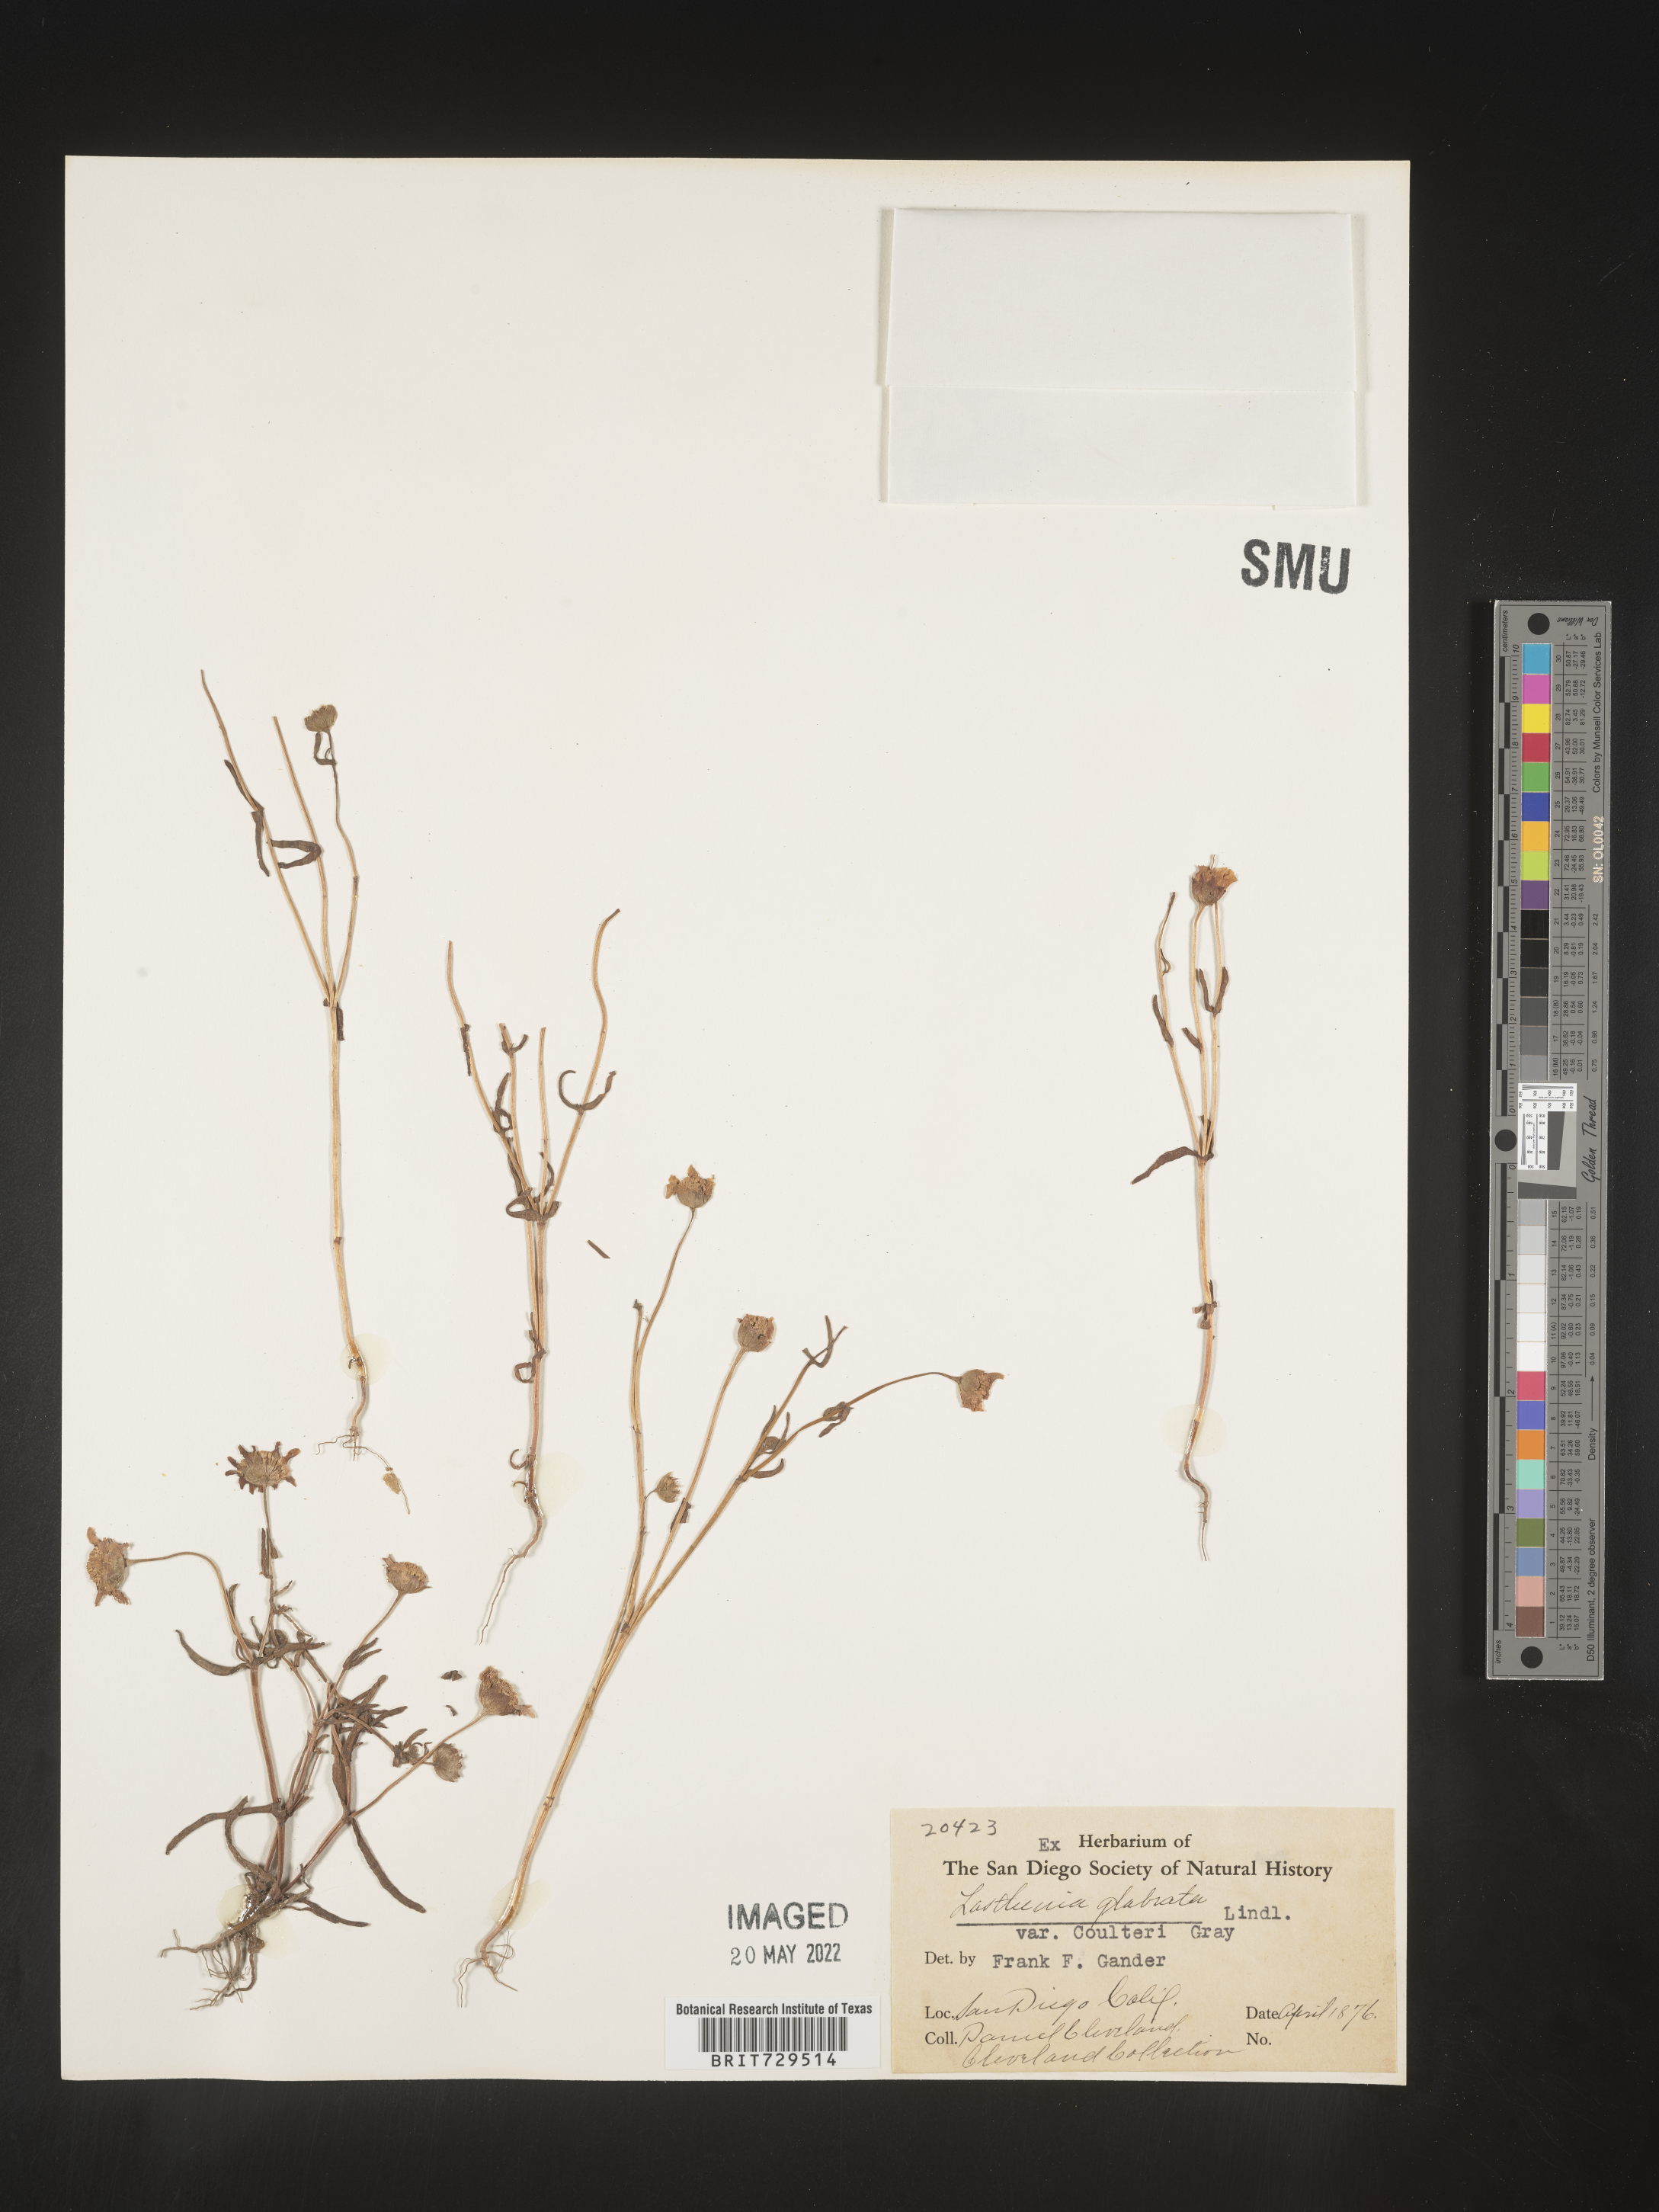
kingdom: Plantae
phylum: Tracheophyta
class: Magnoliopsida
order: Asterales
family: Asteraceae
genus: Lasthenia
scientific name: Lasthenia
